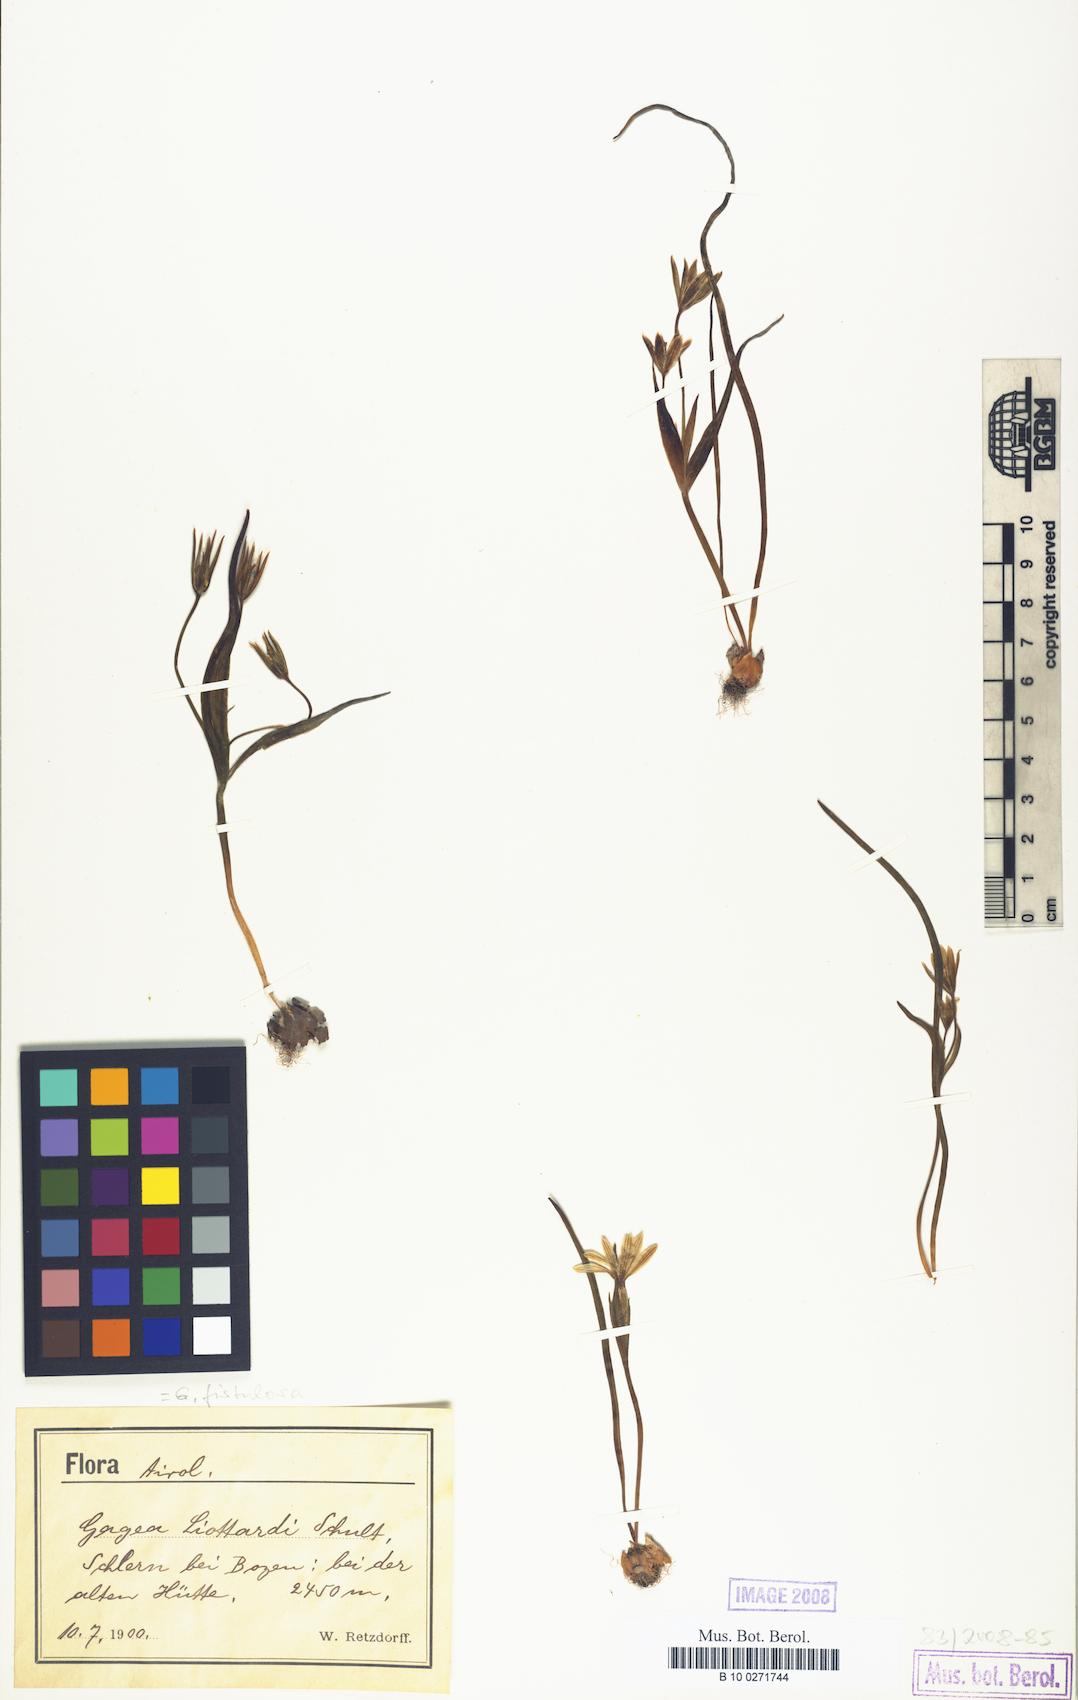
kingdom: Plantae
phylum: Tracheophyta
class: Liliopsida
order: Liliales
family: Liliaceae
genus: Gagea
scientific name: Gagea bohemica
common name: Early star-of-bethlehem
